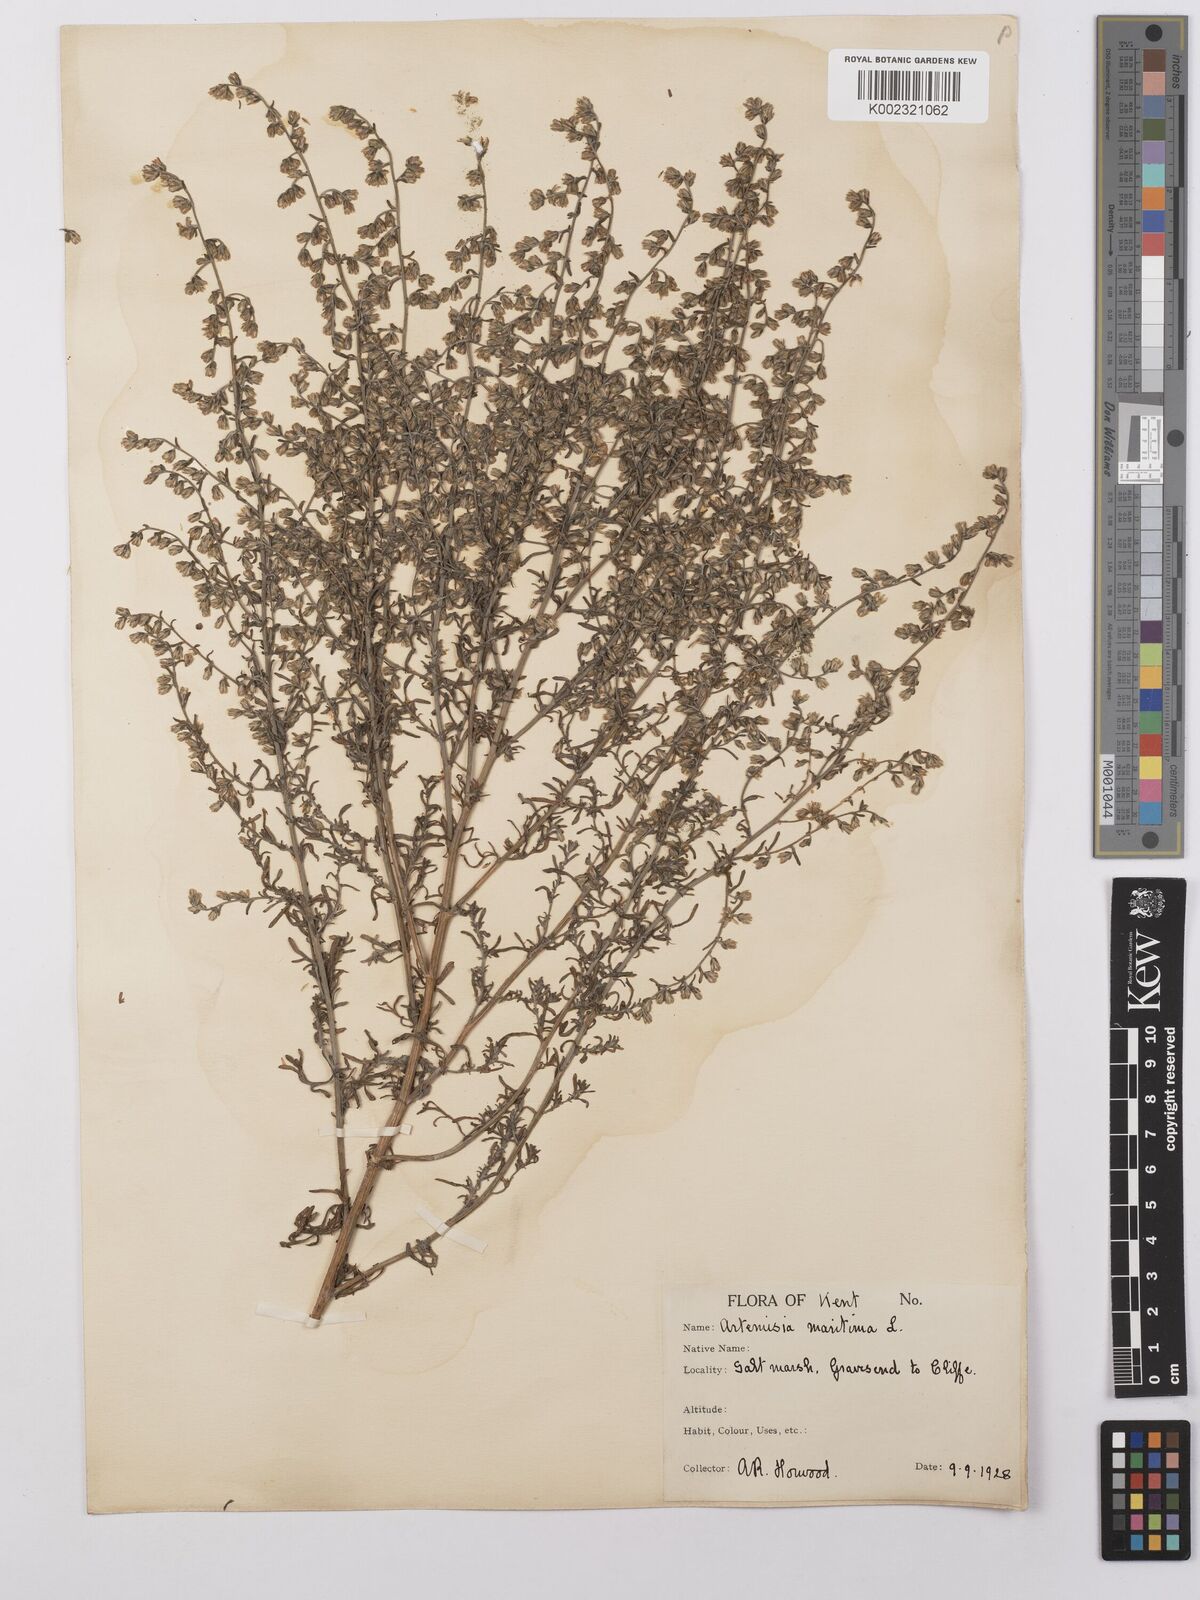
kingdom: Plantae
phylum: Tracheophyta
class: Magnoliopsida
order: Asterales
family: Asteraceae
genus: Artemisia
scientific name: Artemisia maritima
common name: Wormseed
